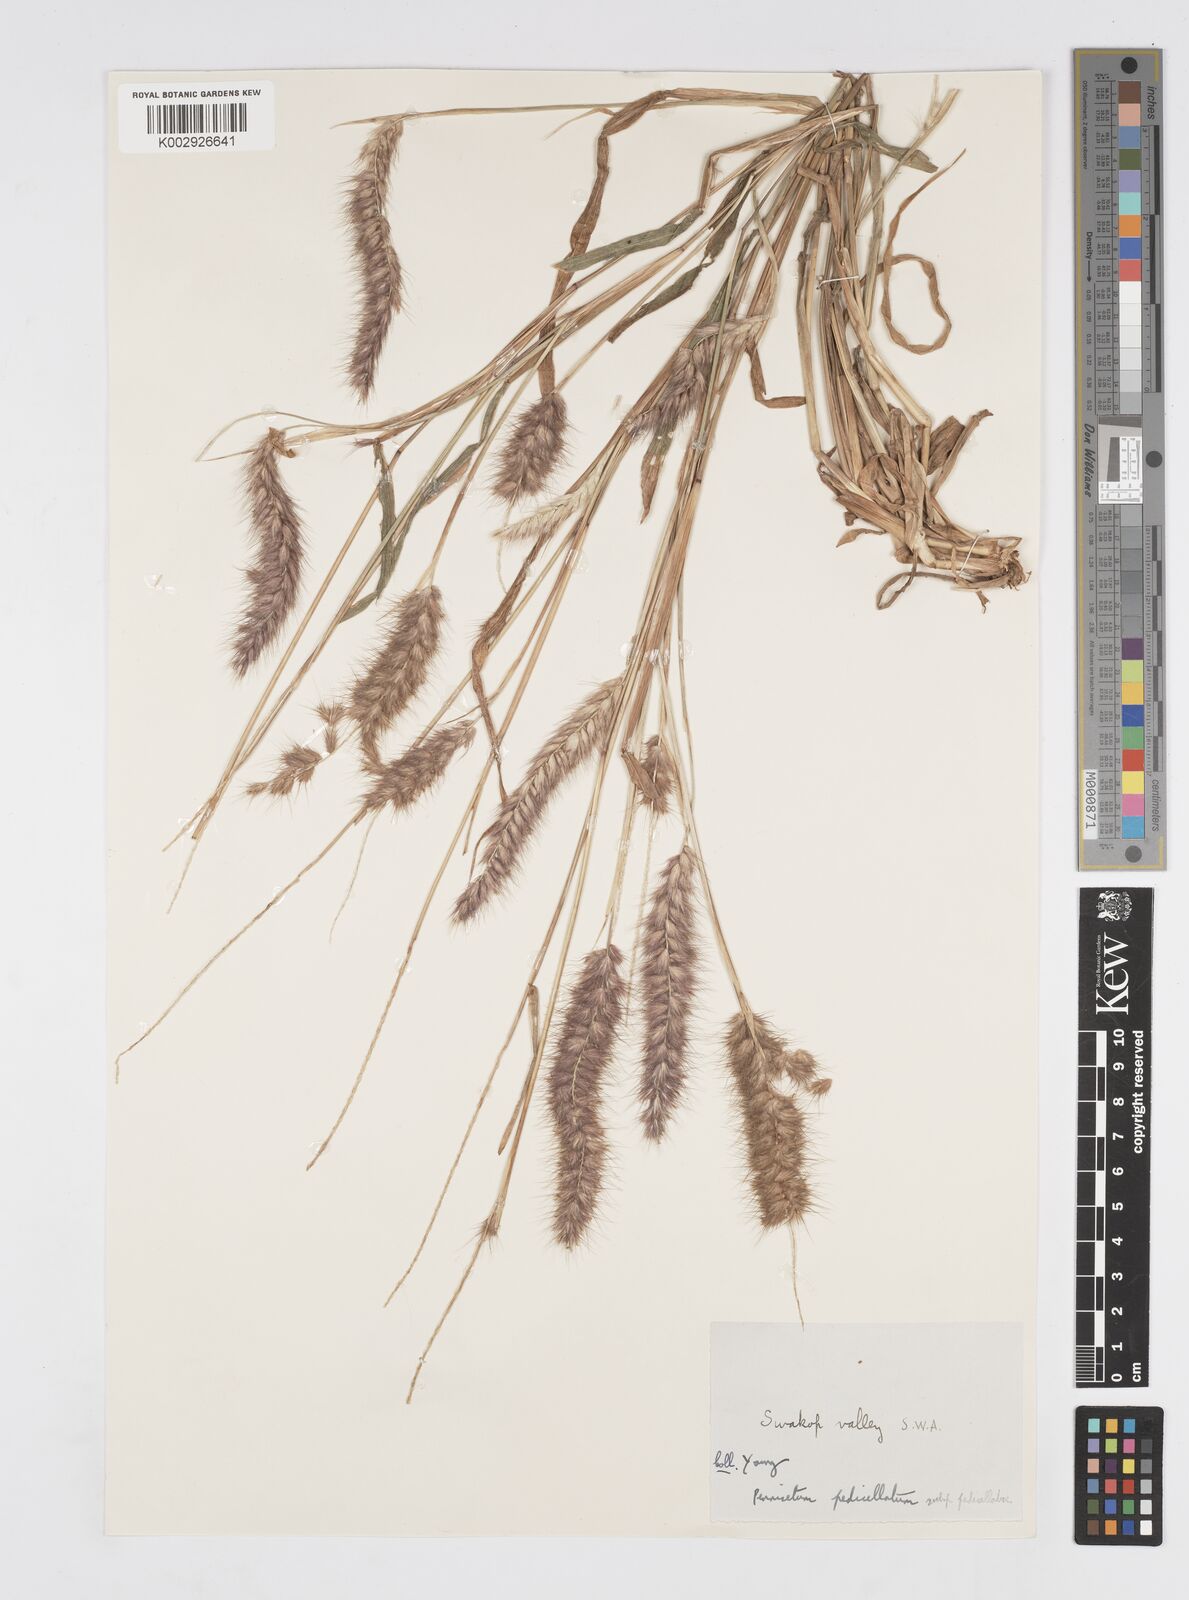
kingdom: Plantae
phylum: Tracheophyta
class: Liliopsida
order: Poales
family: Poaceae
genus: Cenchrus
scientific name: Cenchrus pedicellatus
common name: Hairy fountain grass
